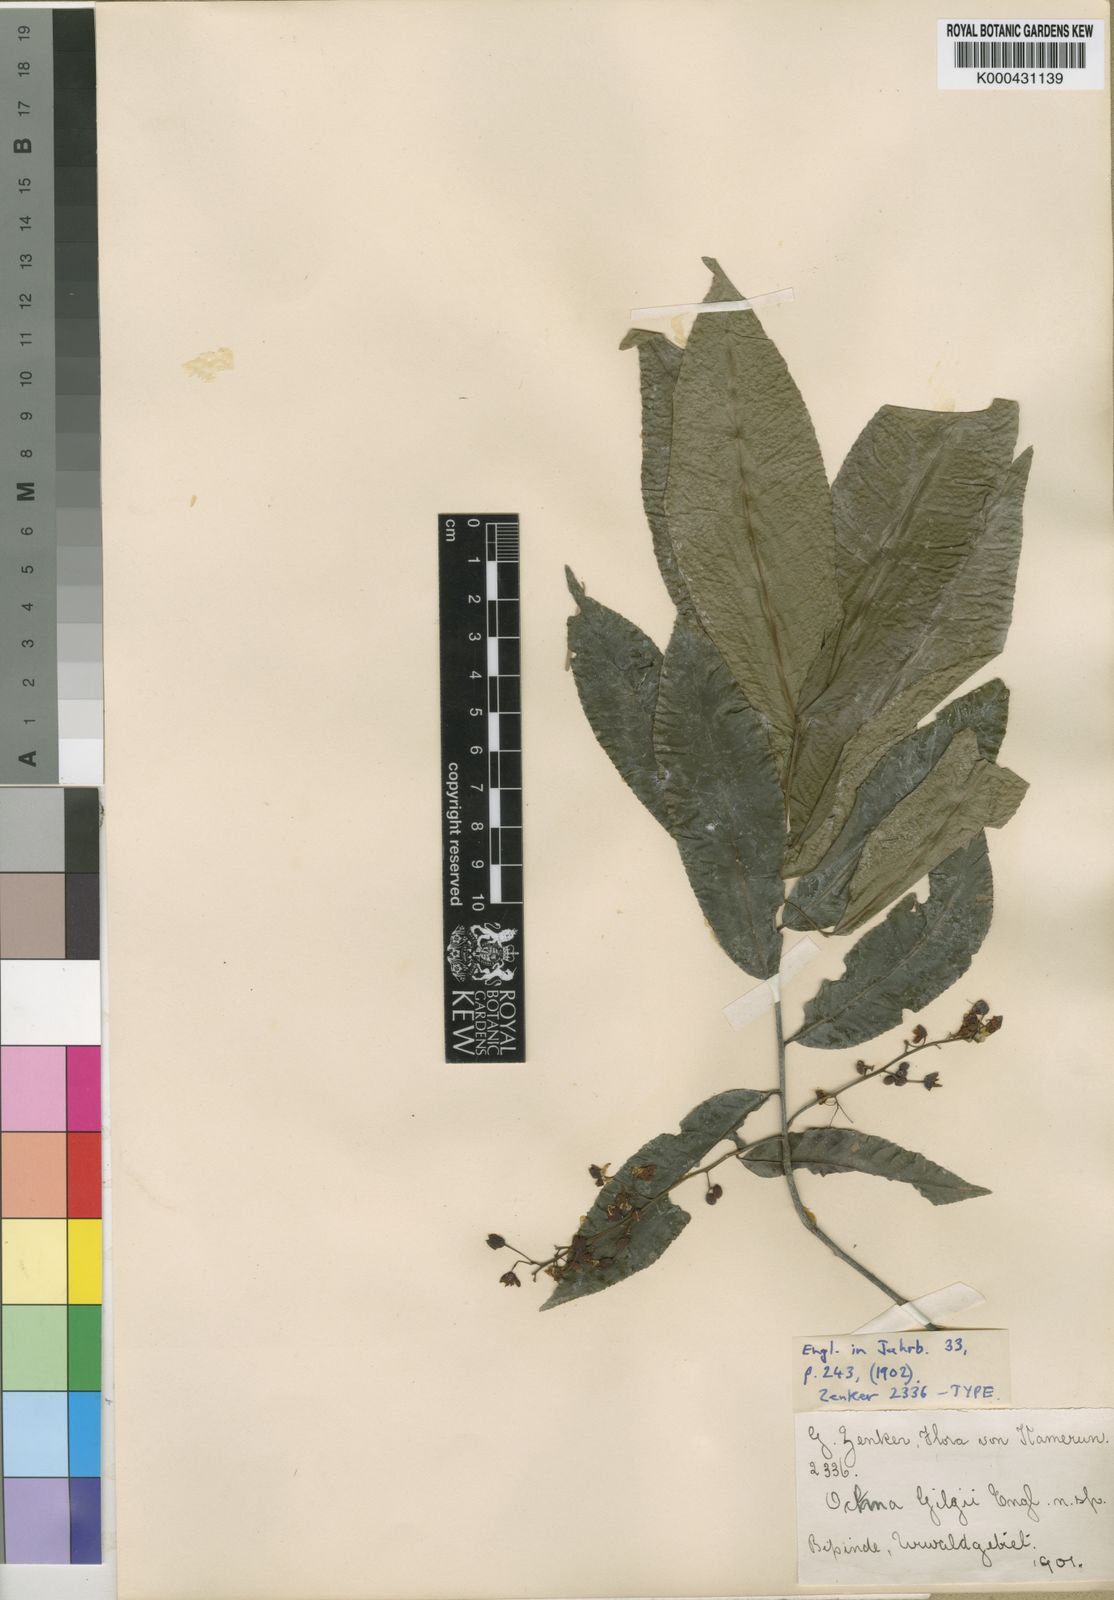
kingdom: Plantae
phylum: Tracheophyta
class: Magnoliopsida
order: Malpighiales
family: Ochnaceae
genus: Ochna
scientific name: Ochna
